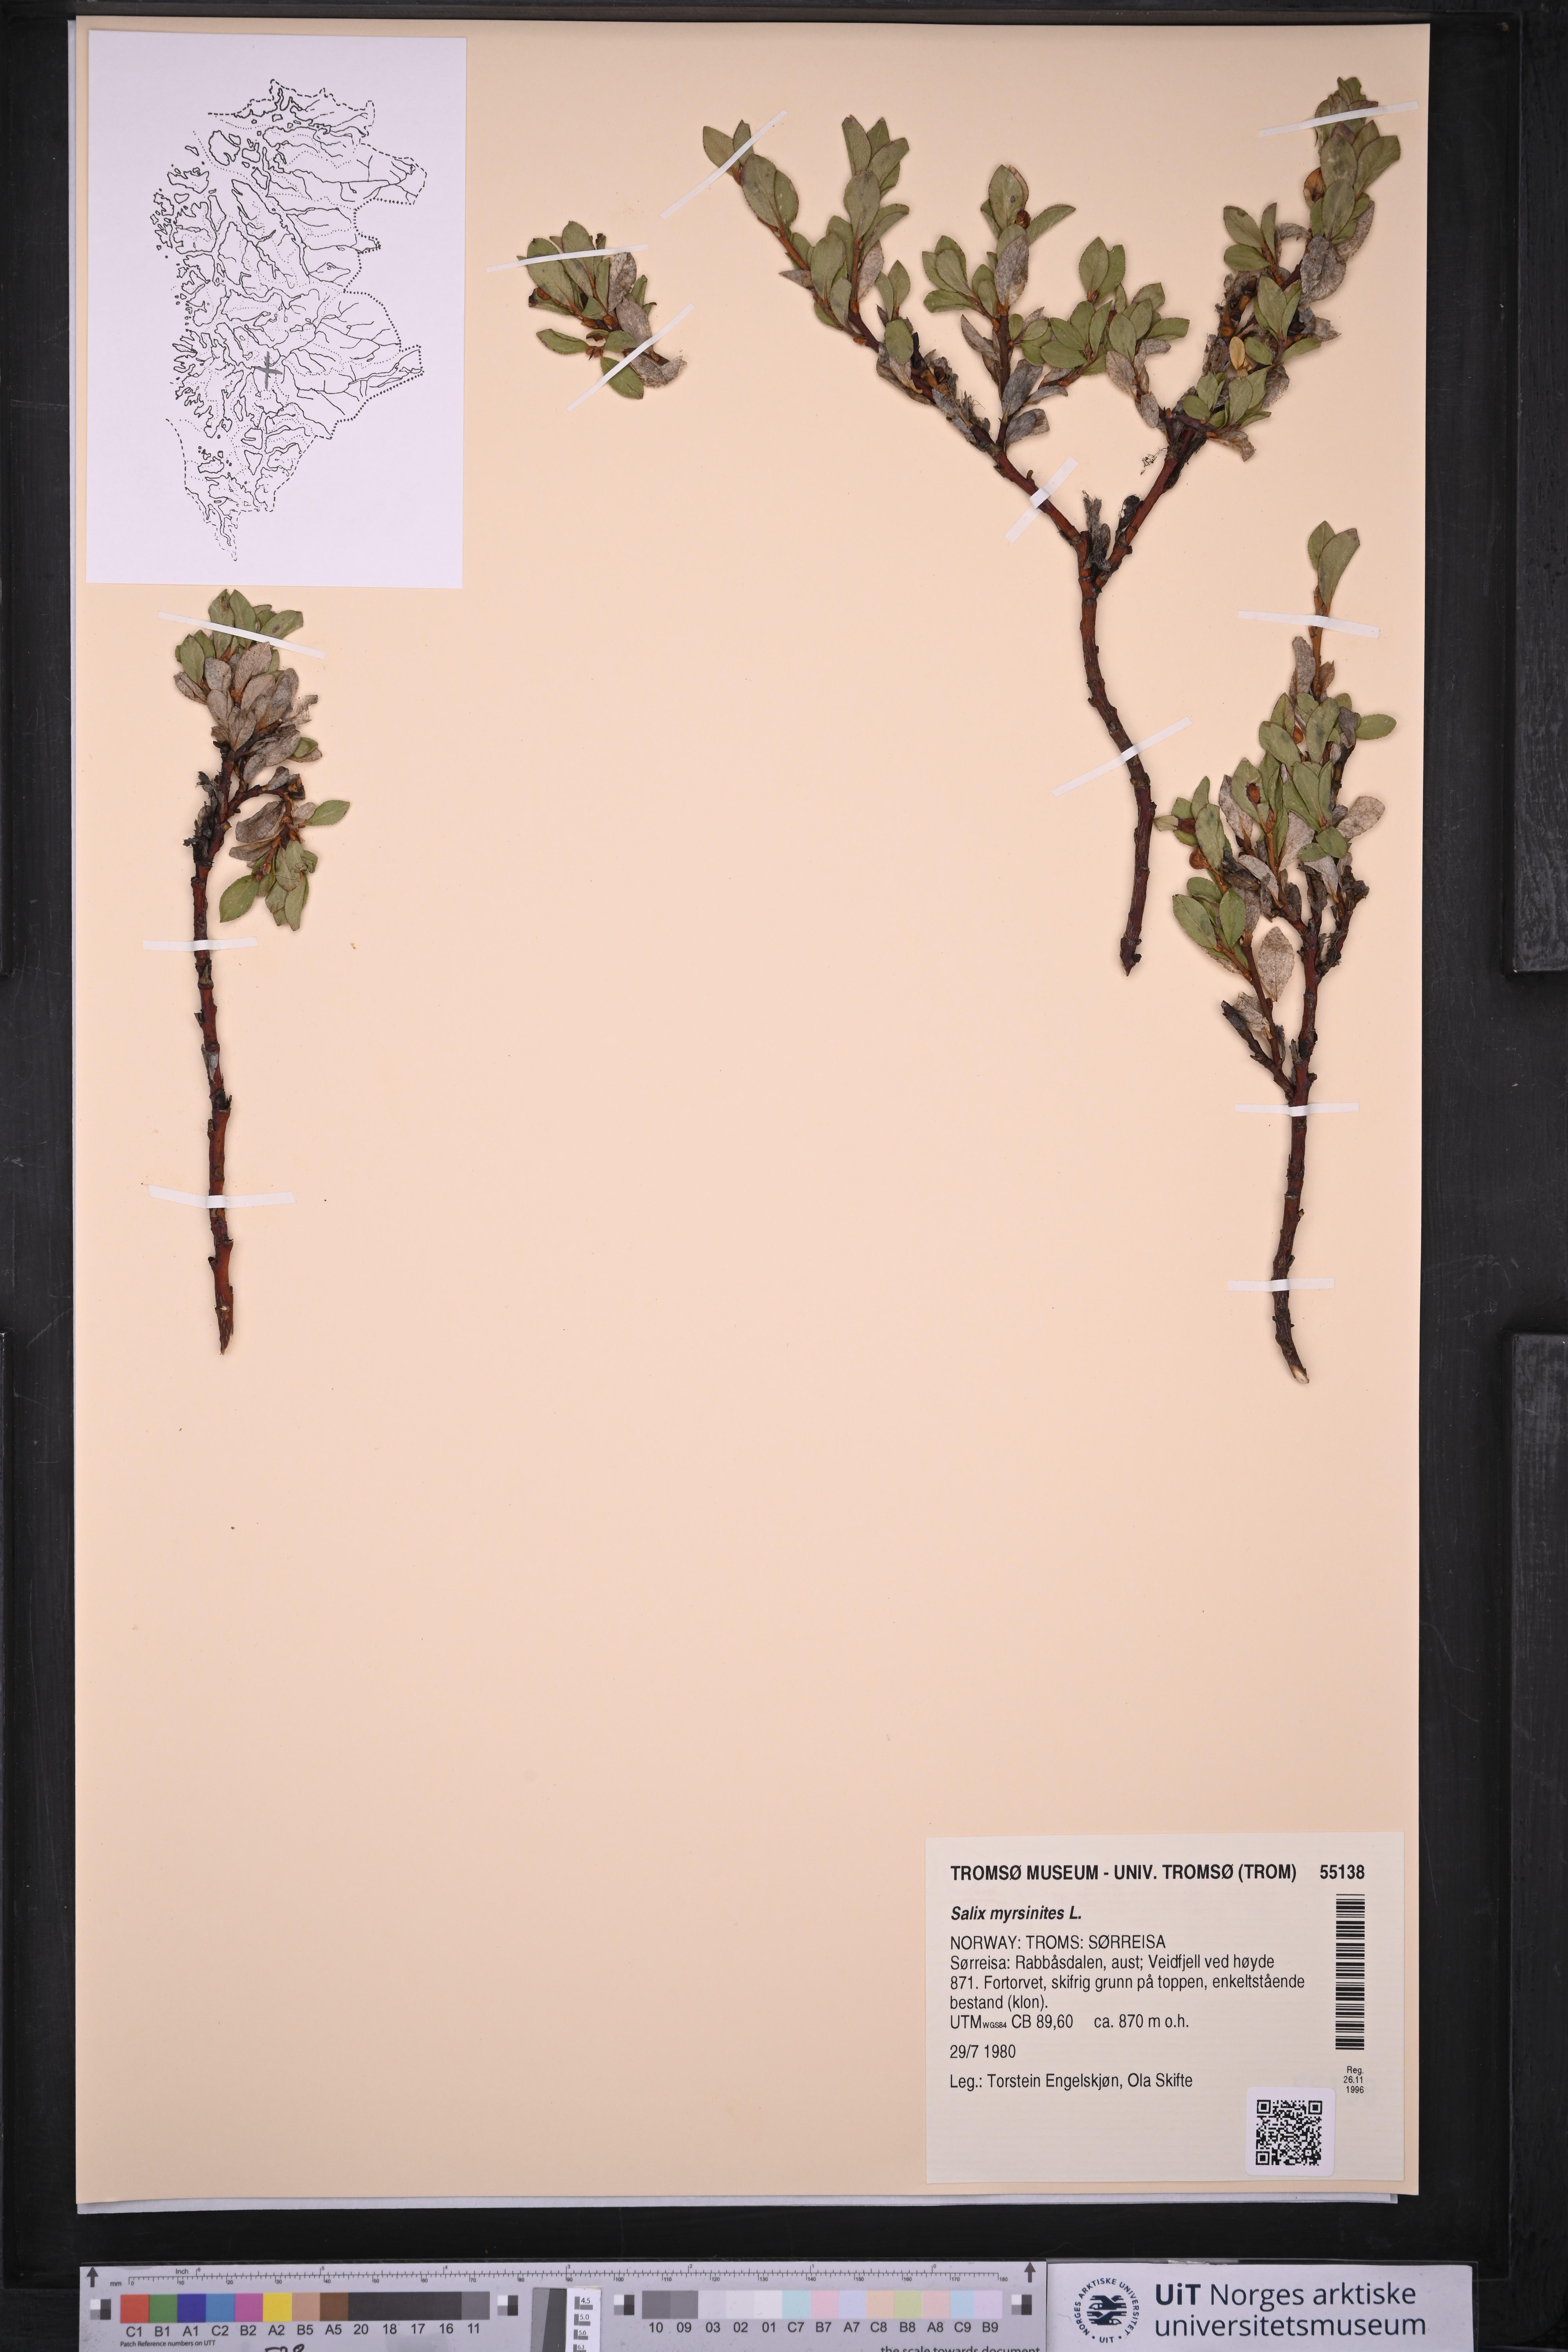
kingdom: Plantae
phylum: Tracheophyta
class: Magnoliopsida
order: Malpighiales
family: Salicaceae
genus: Salix
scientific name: Salix myrsinites
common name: Myrtle willow
